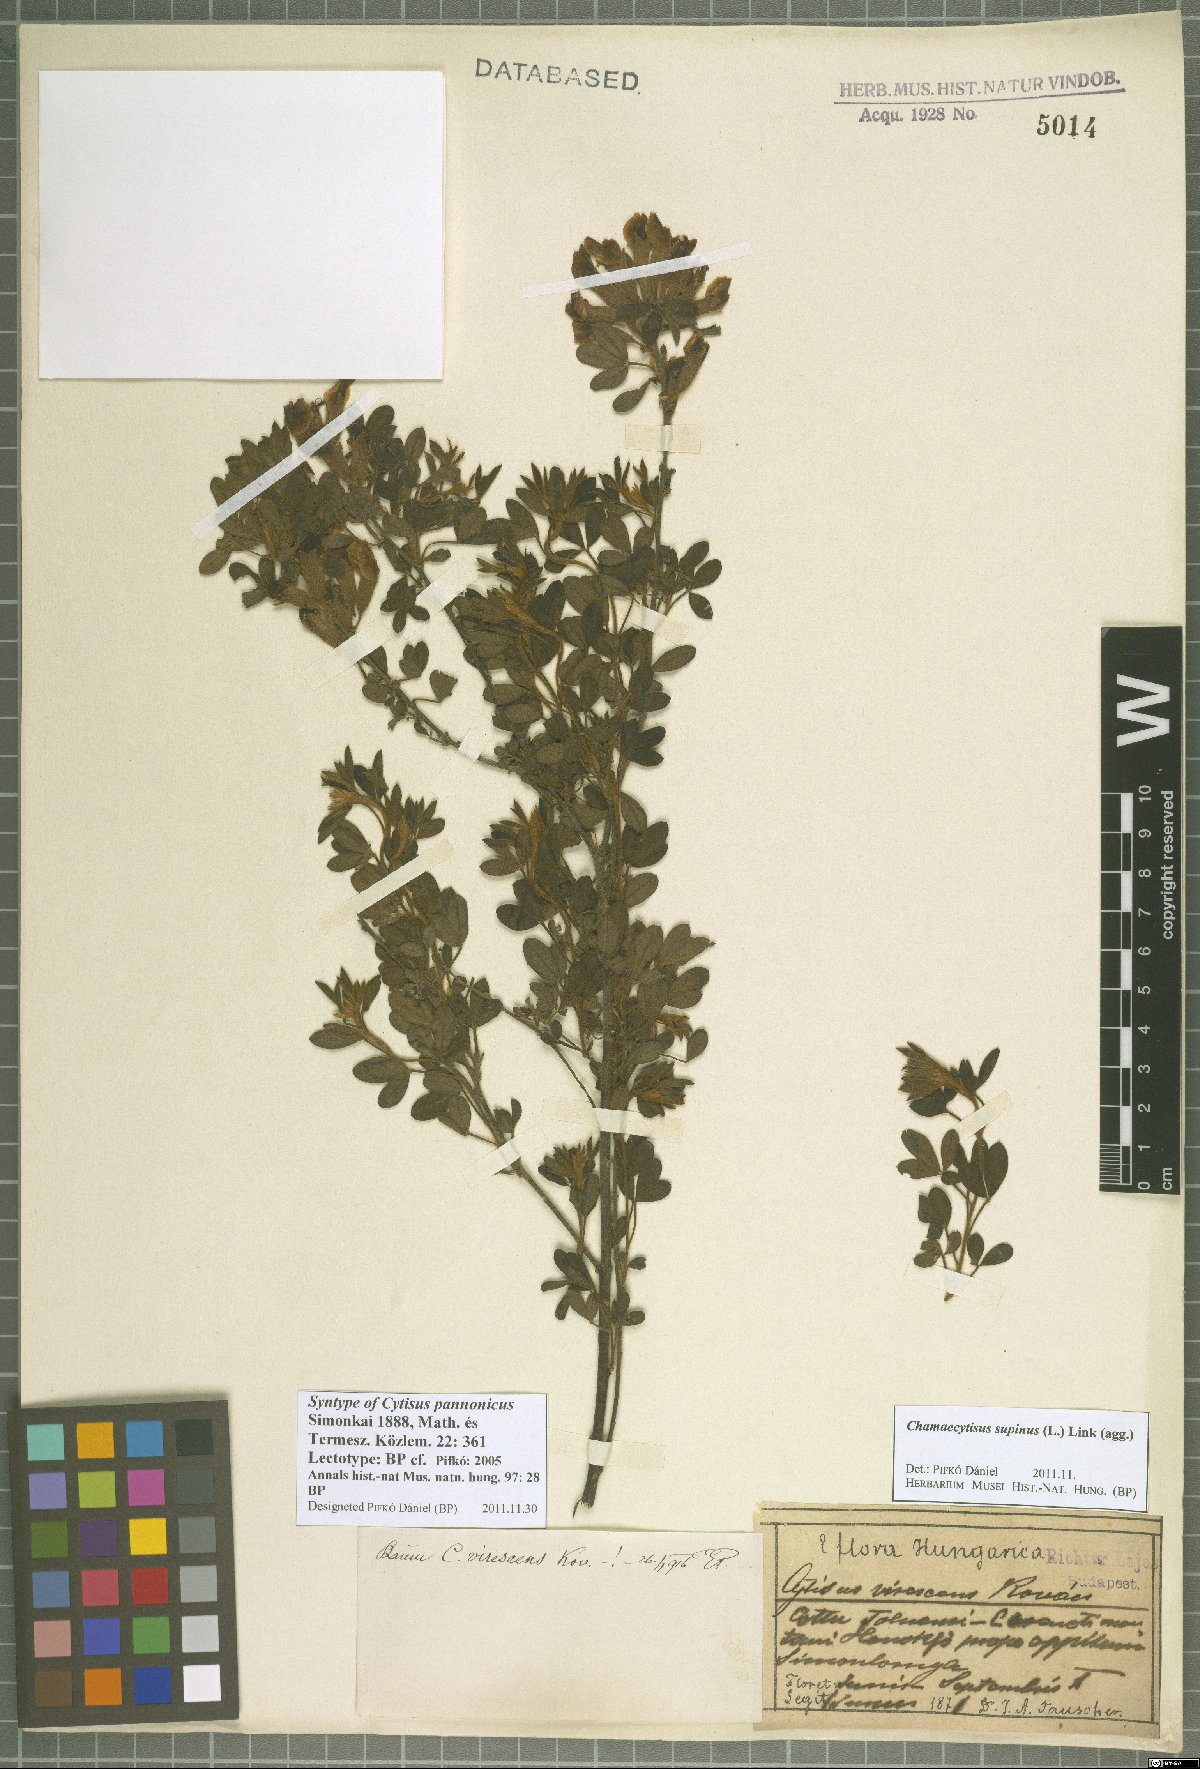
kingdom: Plantae
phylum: Tracheophyta
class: Magnoliopsida
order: Fabales
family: Fabaceae
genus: Chamaecytisus
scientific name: Chamaecytisus supinus
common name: Clustered broom
